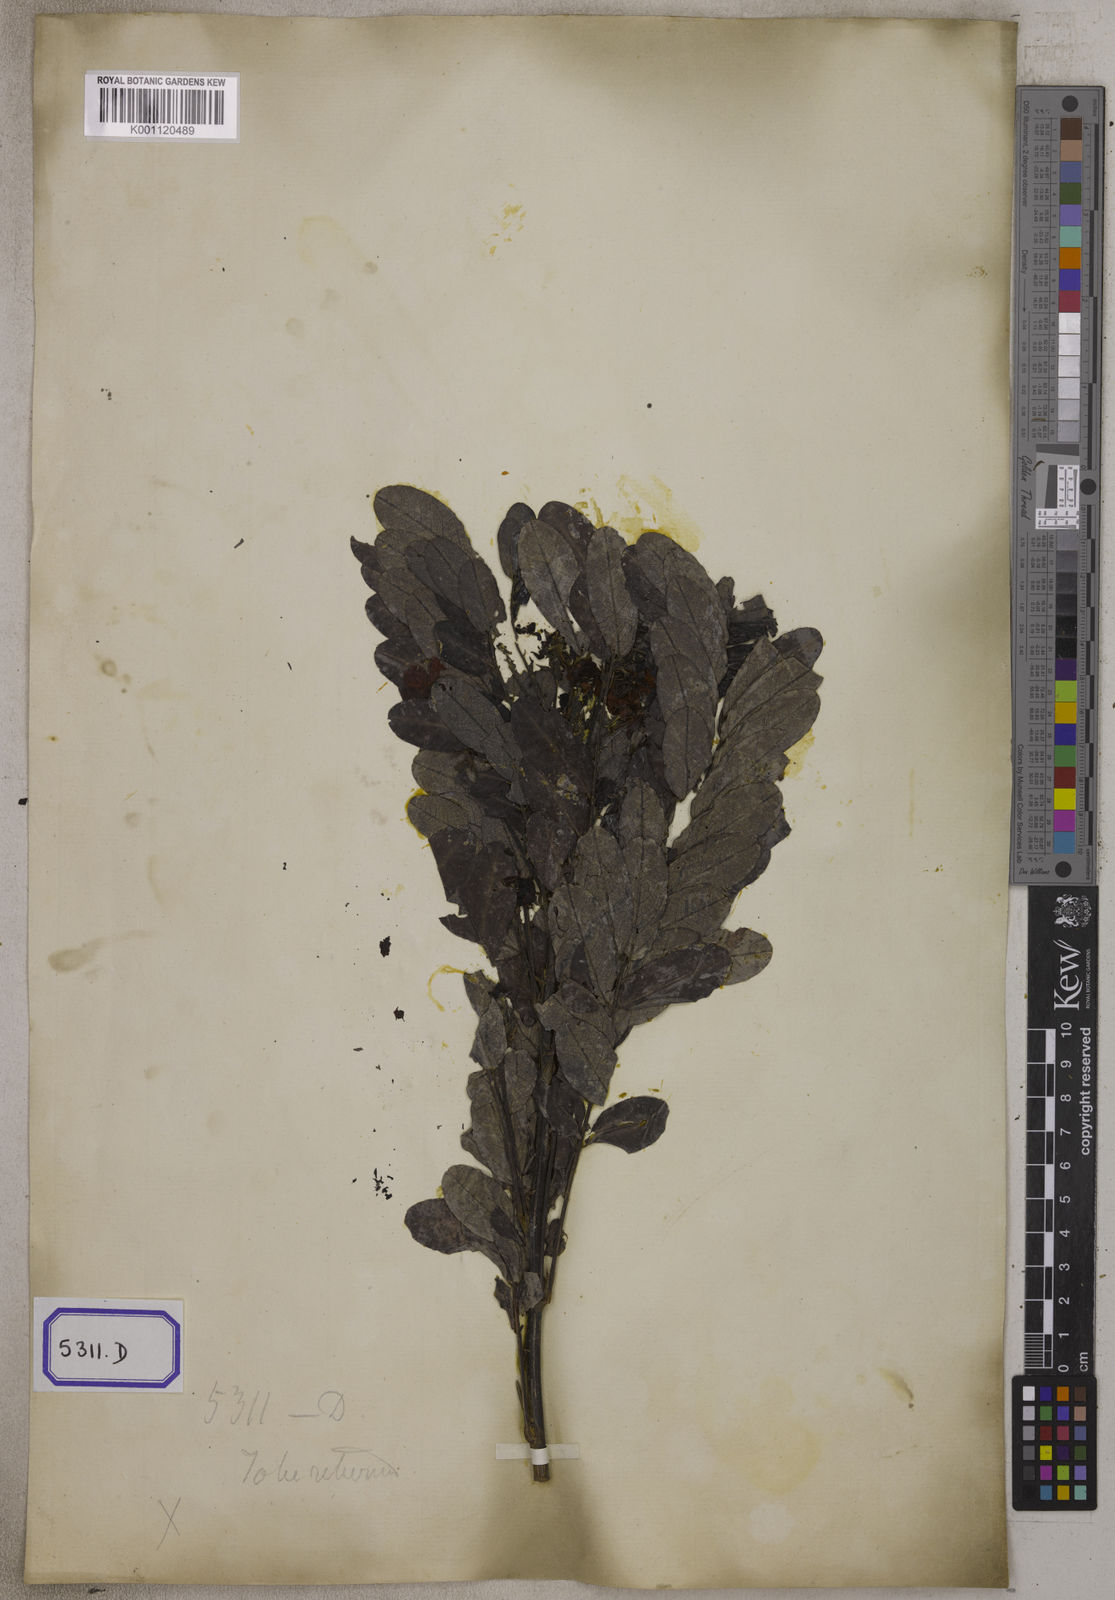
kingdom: Plantae
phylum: Tracheophyta
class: Magnoliopsida
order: Fabales
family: Fabaceae
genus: Senna
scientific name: Senna surattensis
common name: Glossy shower
